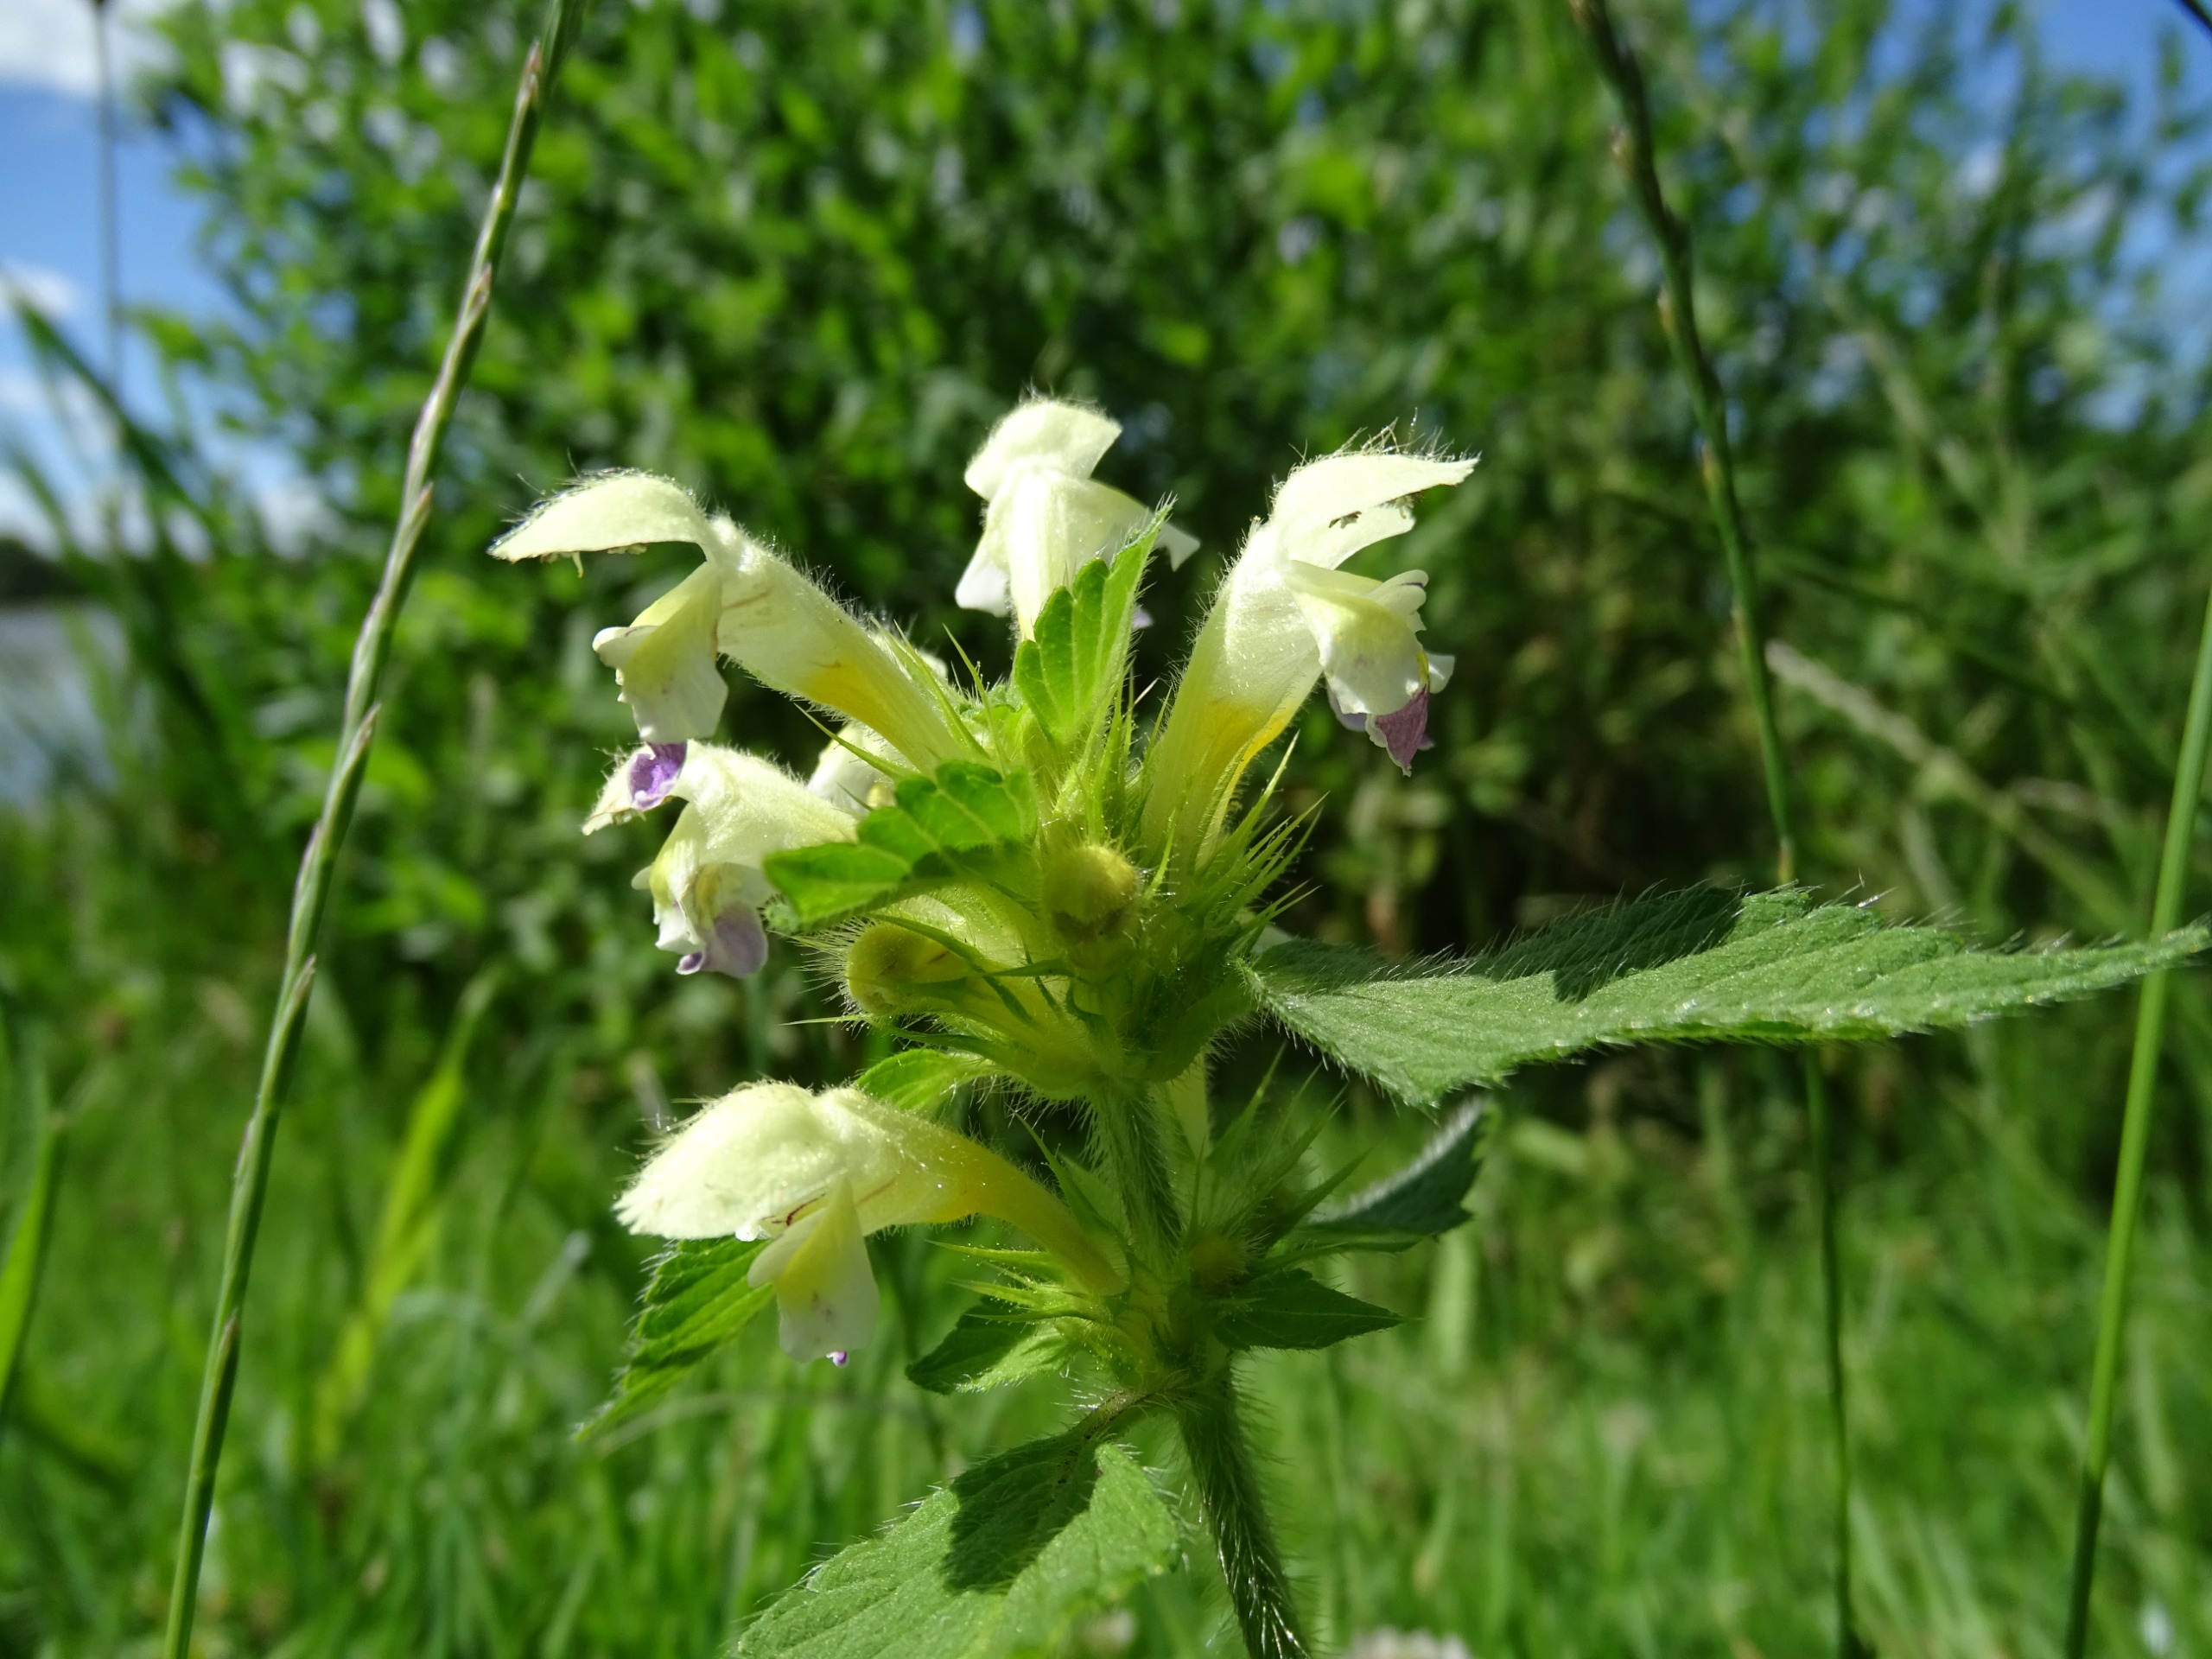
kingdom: Plantae
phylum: Tracheophyta
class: Magnoliopsida
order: Lamiales
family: Lamiaceae
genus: Galeopsis
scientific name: Galeopsis speciosa
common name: Hamp-hanekro
